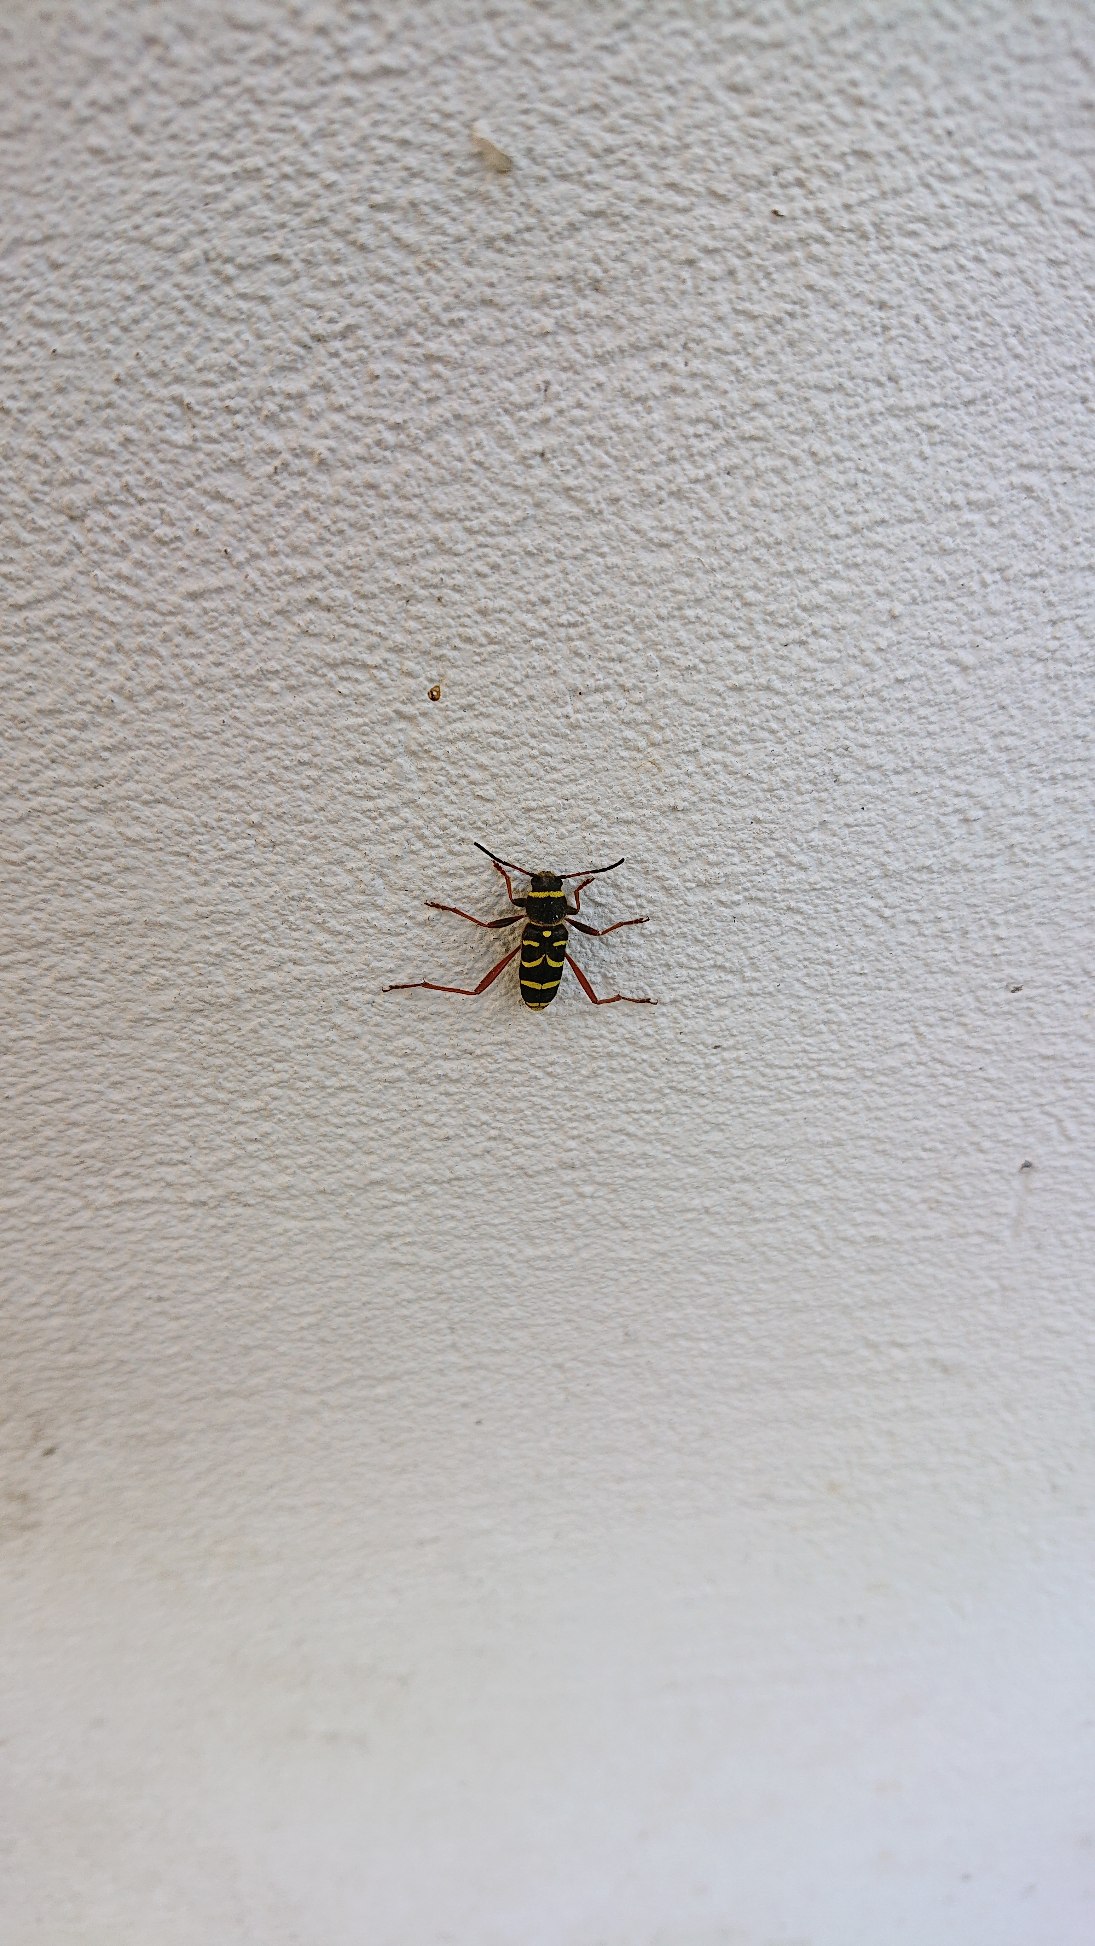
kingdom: Animalia
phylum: Arthropoda
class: Insecta
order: Coleoptera
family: Cerambycidae
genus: Clytus
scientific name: Clytus arietis
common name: Lille hvepsebuk
